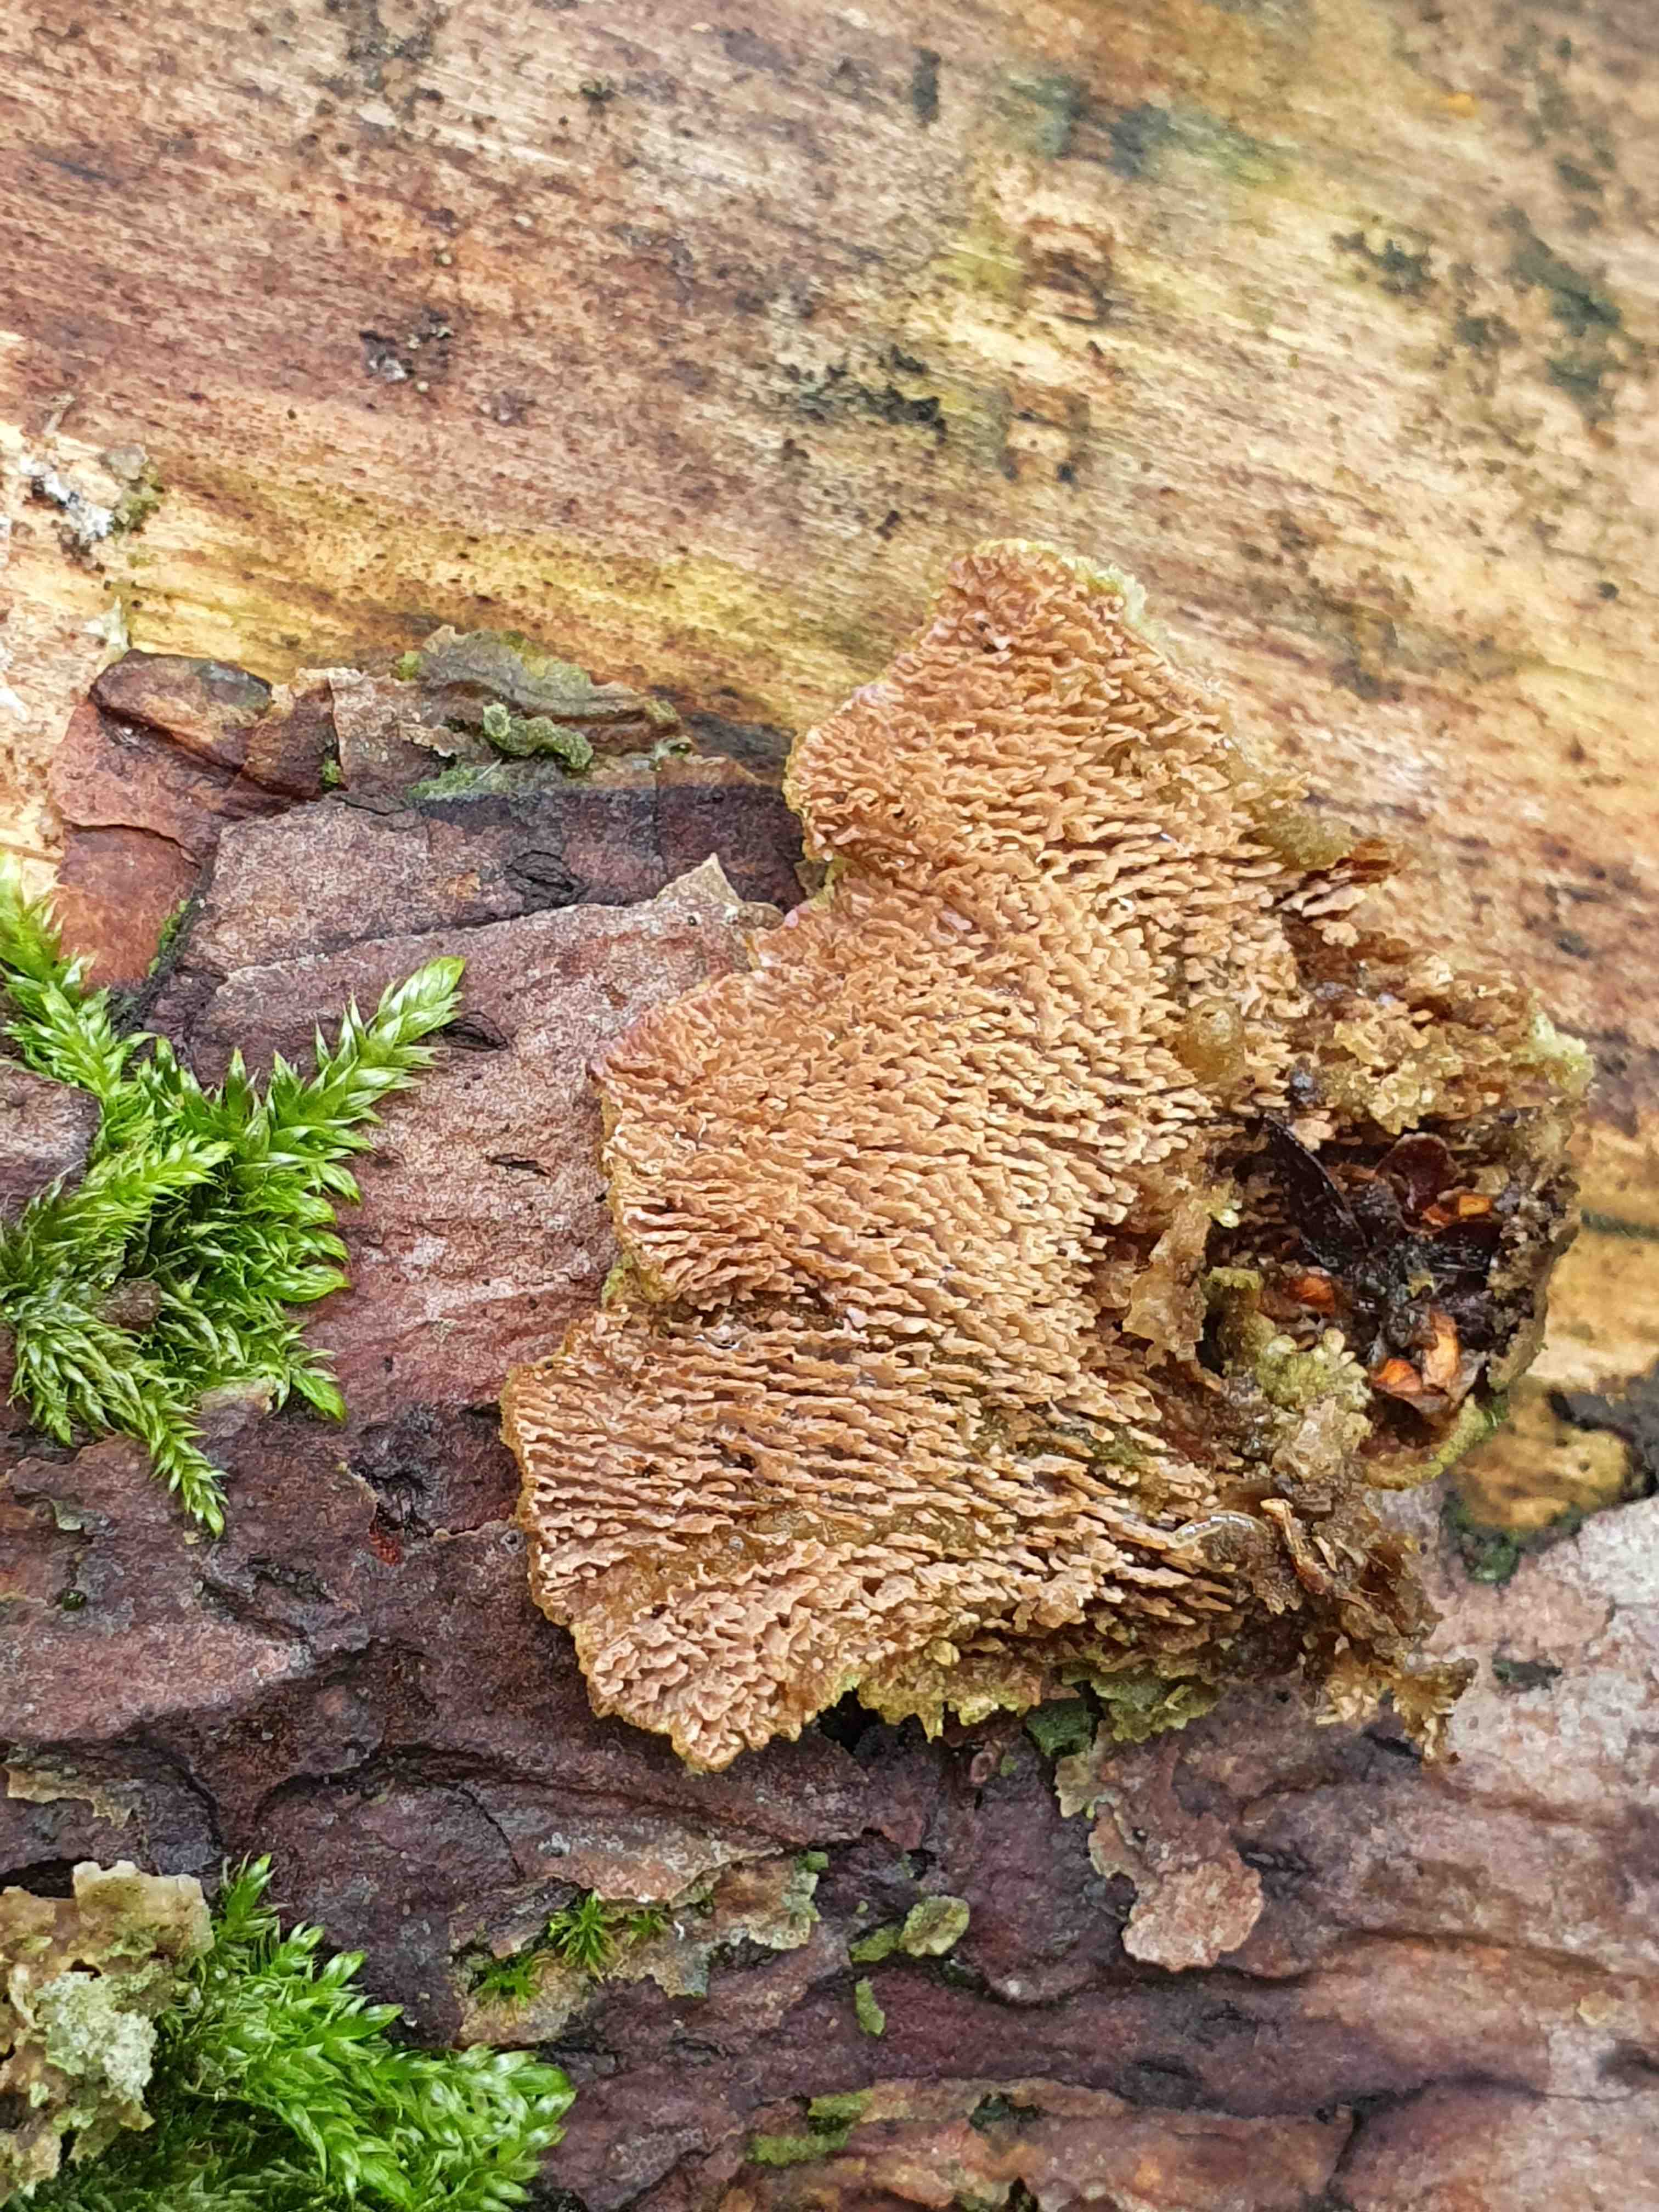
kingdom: Fungi
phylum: Basidiomycota
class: Agaricomycetes
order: Polyporales
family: Polyporaceae
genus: Trichaptum
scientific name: Trichaptum
